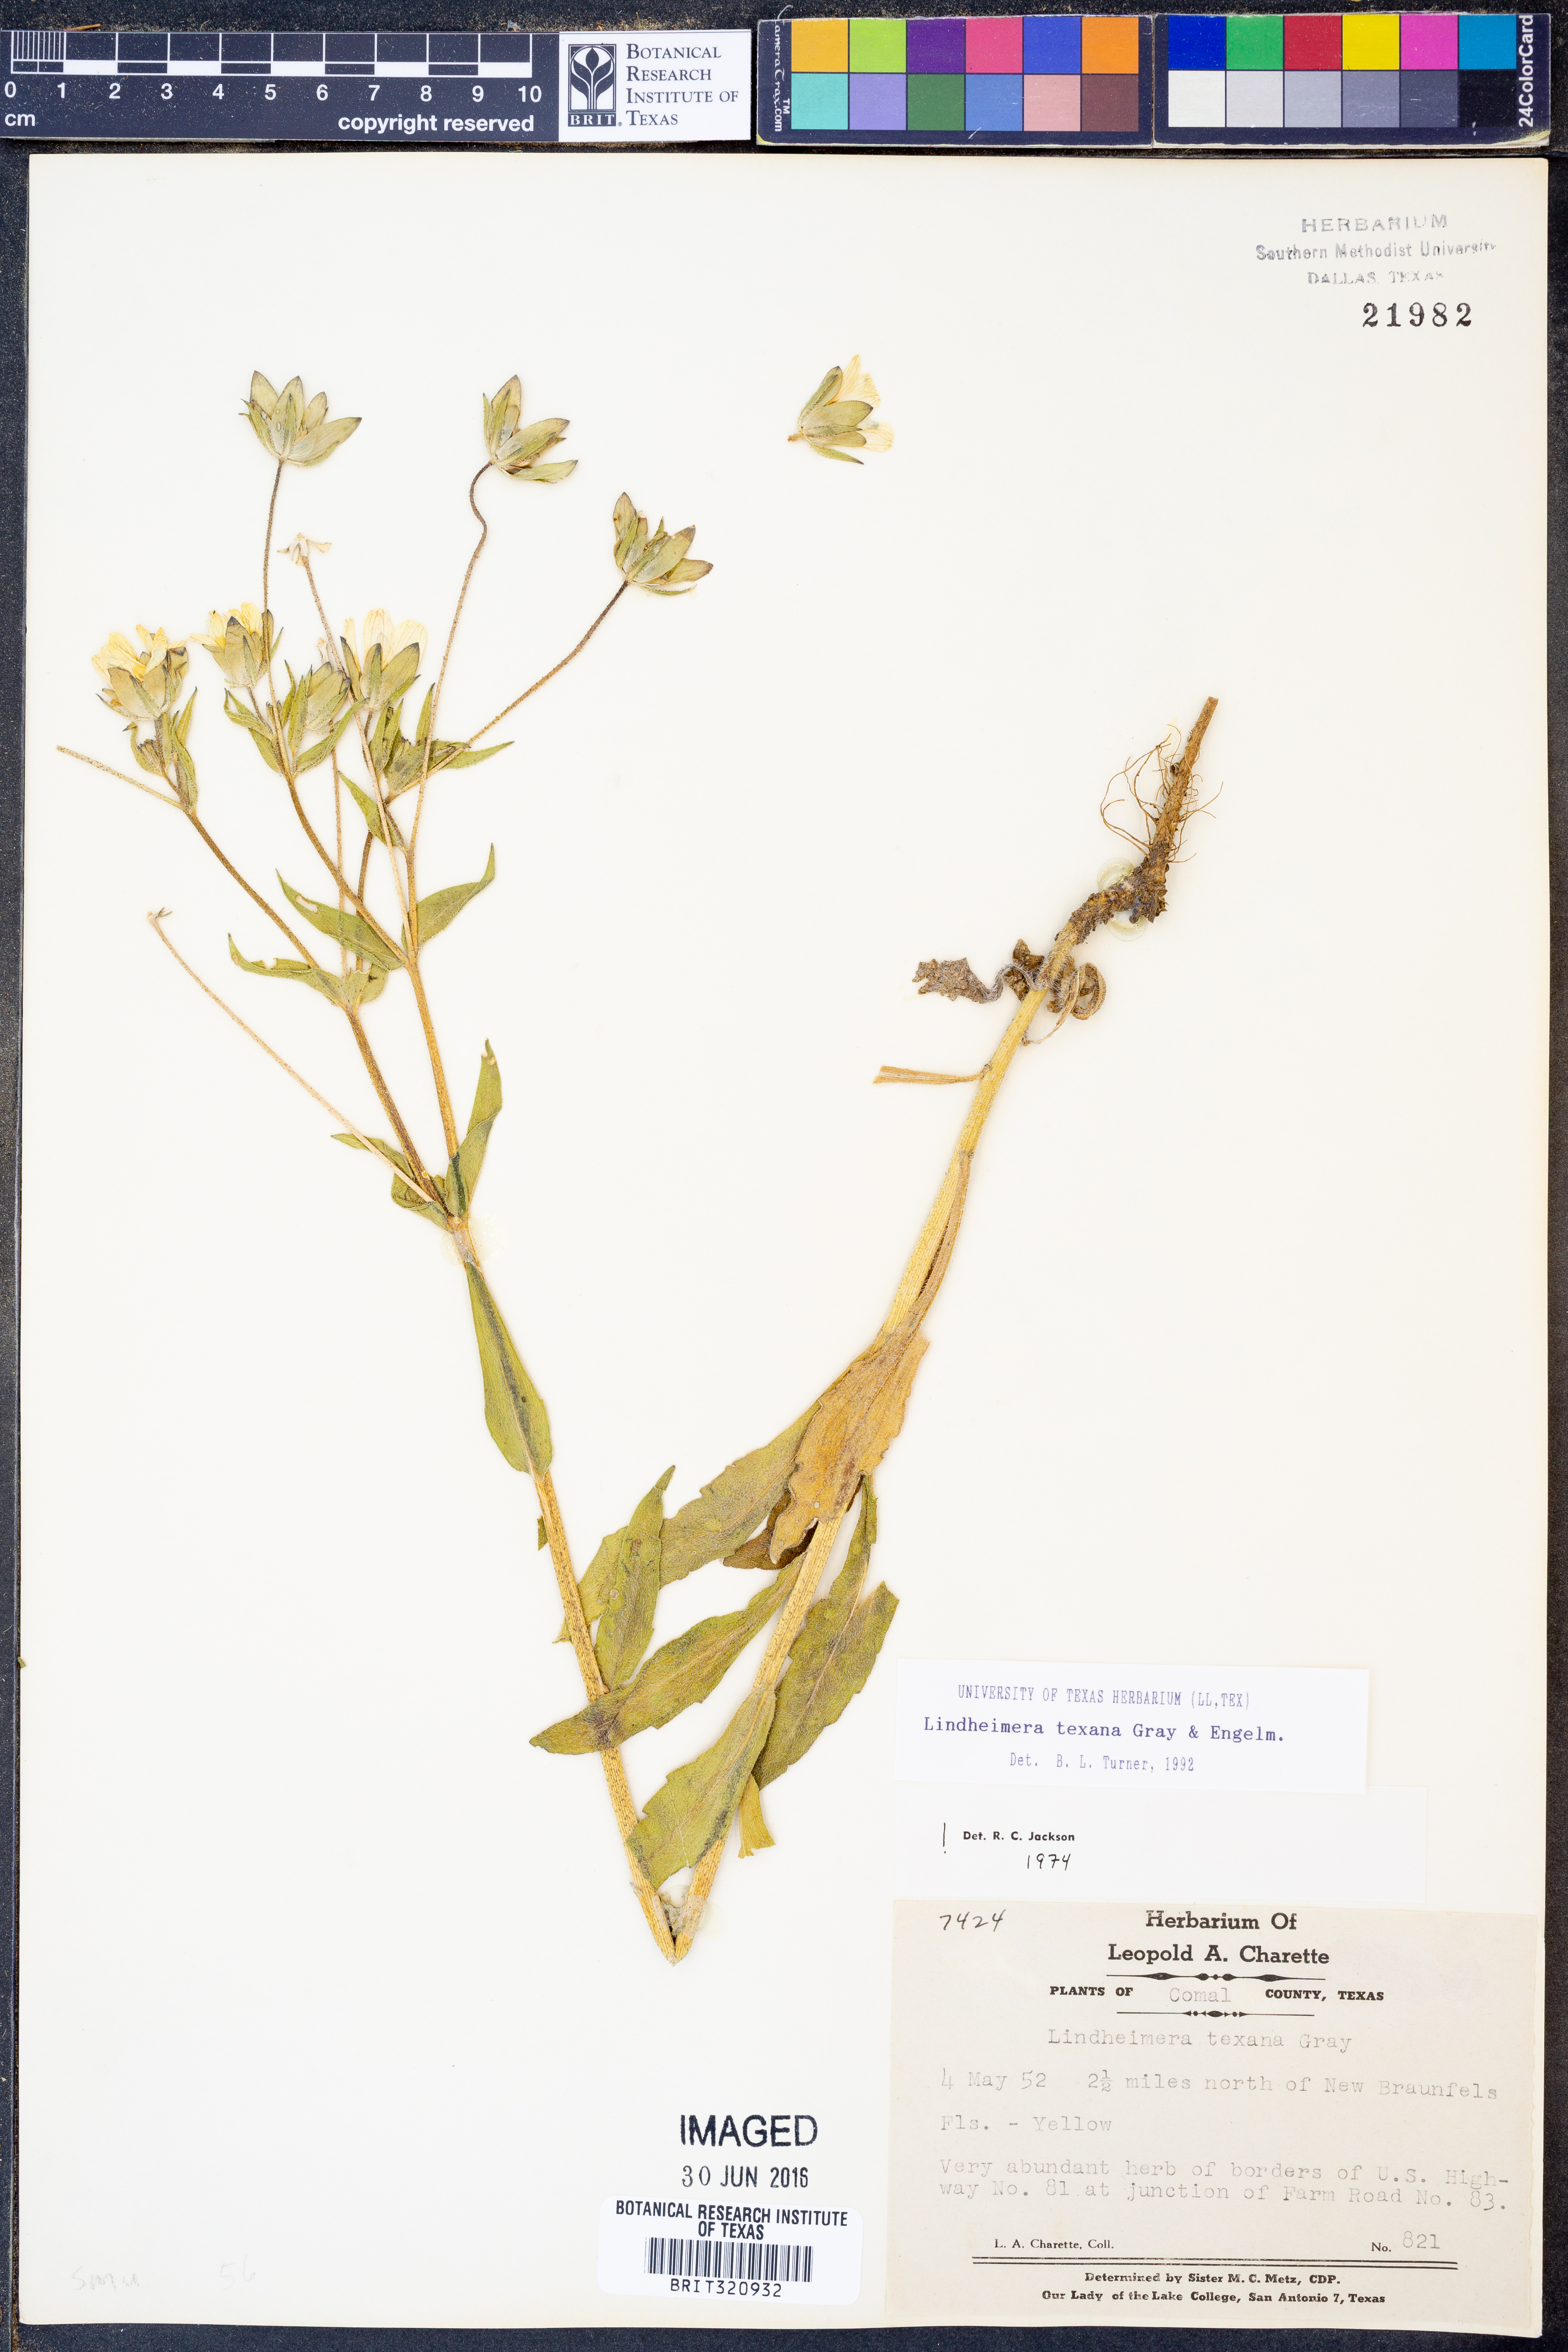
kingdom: Plantae
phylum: Tracheophyta
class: Magnoliopsida
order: Asterales
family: Asteraceae
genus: Lindheimera
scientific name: Lindheimera texana
